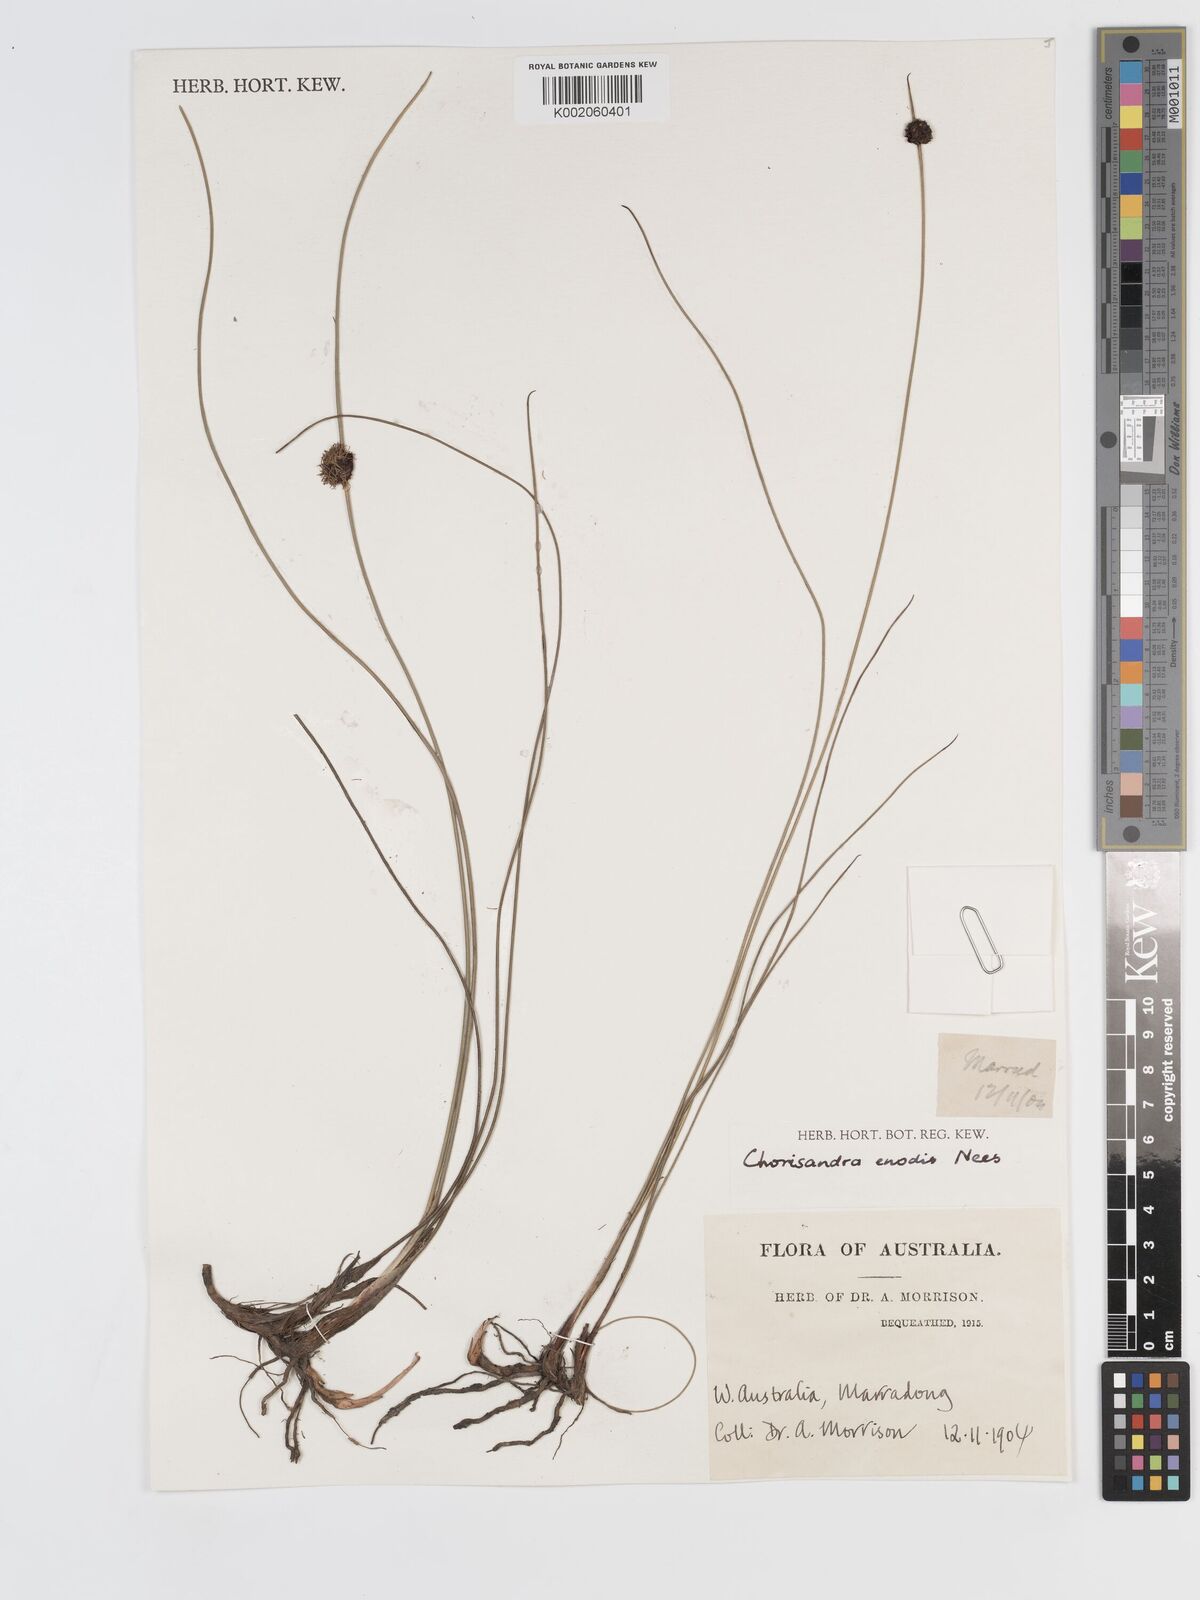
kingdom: Plantae
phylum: Tracheophyta
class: Liliopsida
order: Poales
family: Cyperaceae
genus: Chorizandra
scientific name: Chorizandra enodis
